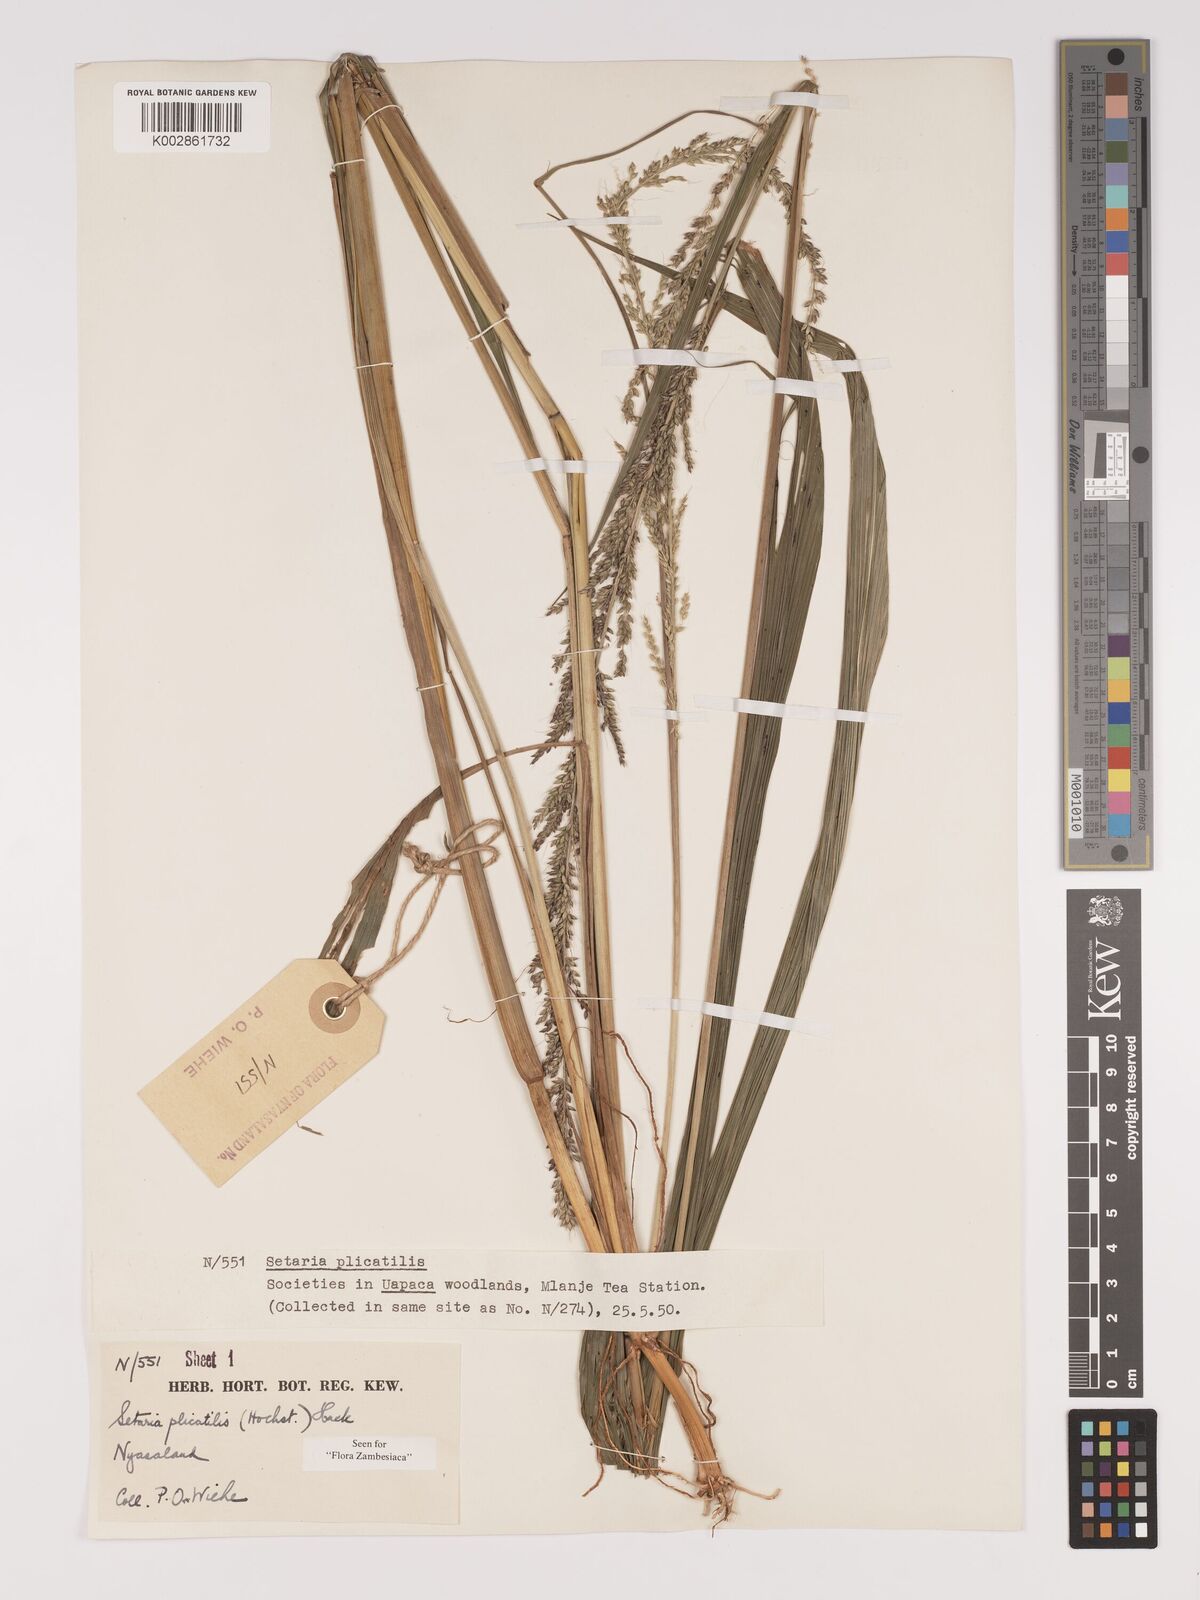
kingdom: Plantae
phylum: Tracheophyta
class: Liliopsida
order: Poales
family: Poaceae
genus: Setaria
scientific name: Setaria megaphylla
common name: Bigleaf bristlegrass
